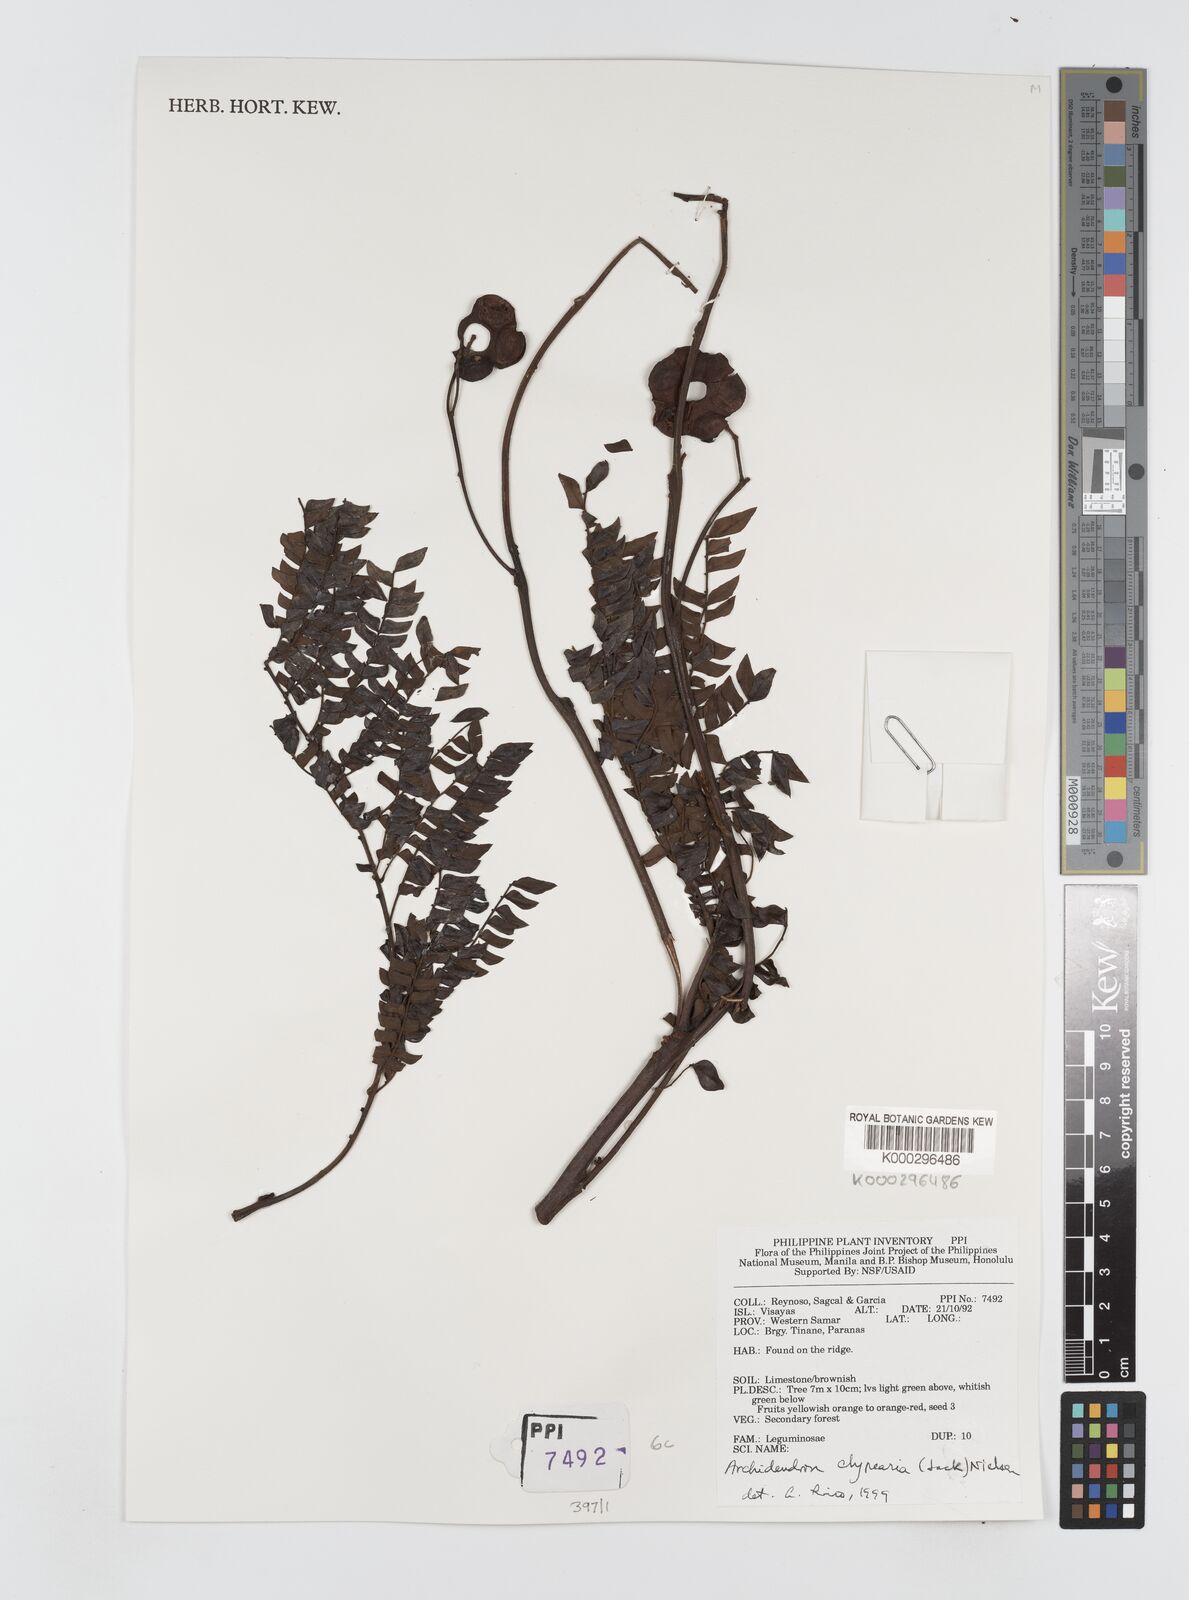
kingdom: Plantae
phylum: Tracheophyta
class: Magnoliopsida
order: Fabales
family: Fabaceae
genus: Archidendron
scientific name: Archidendron clypearia
